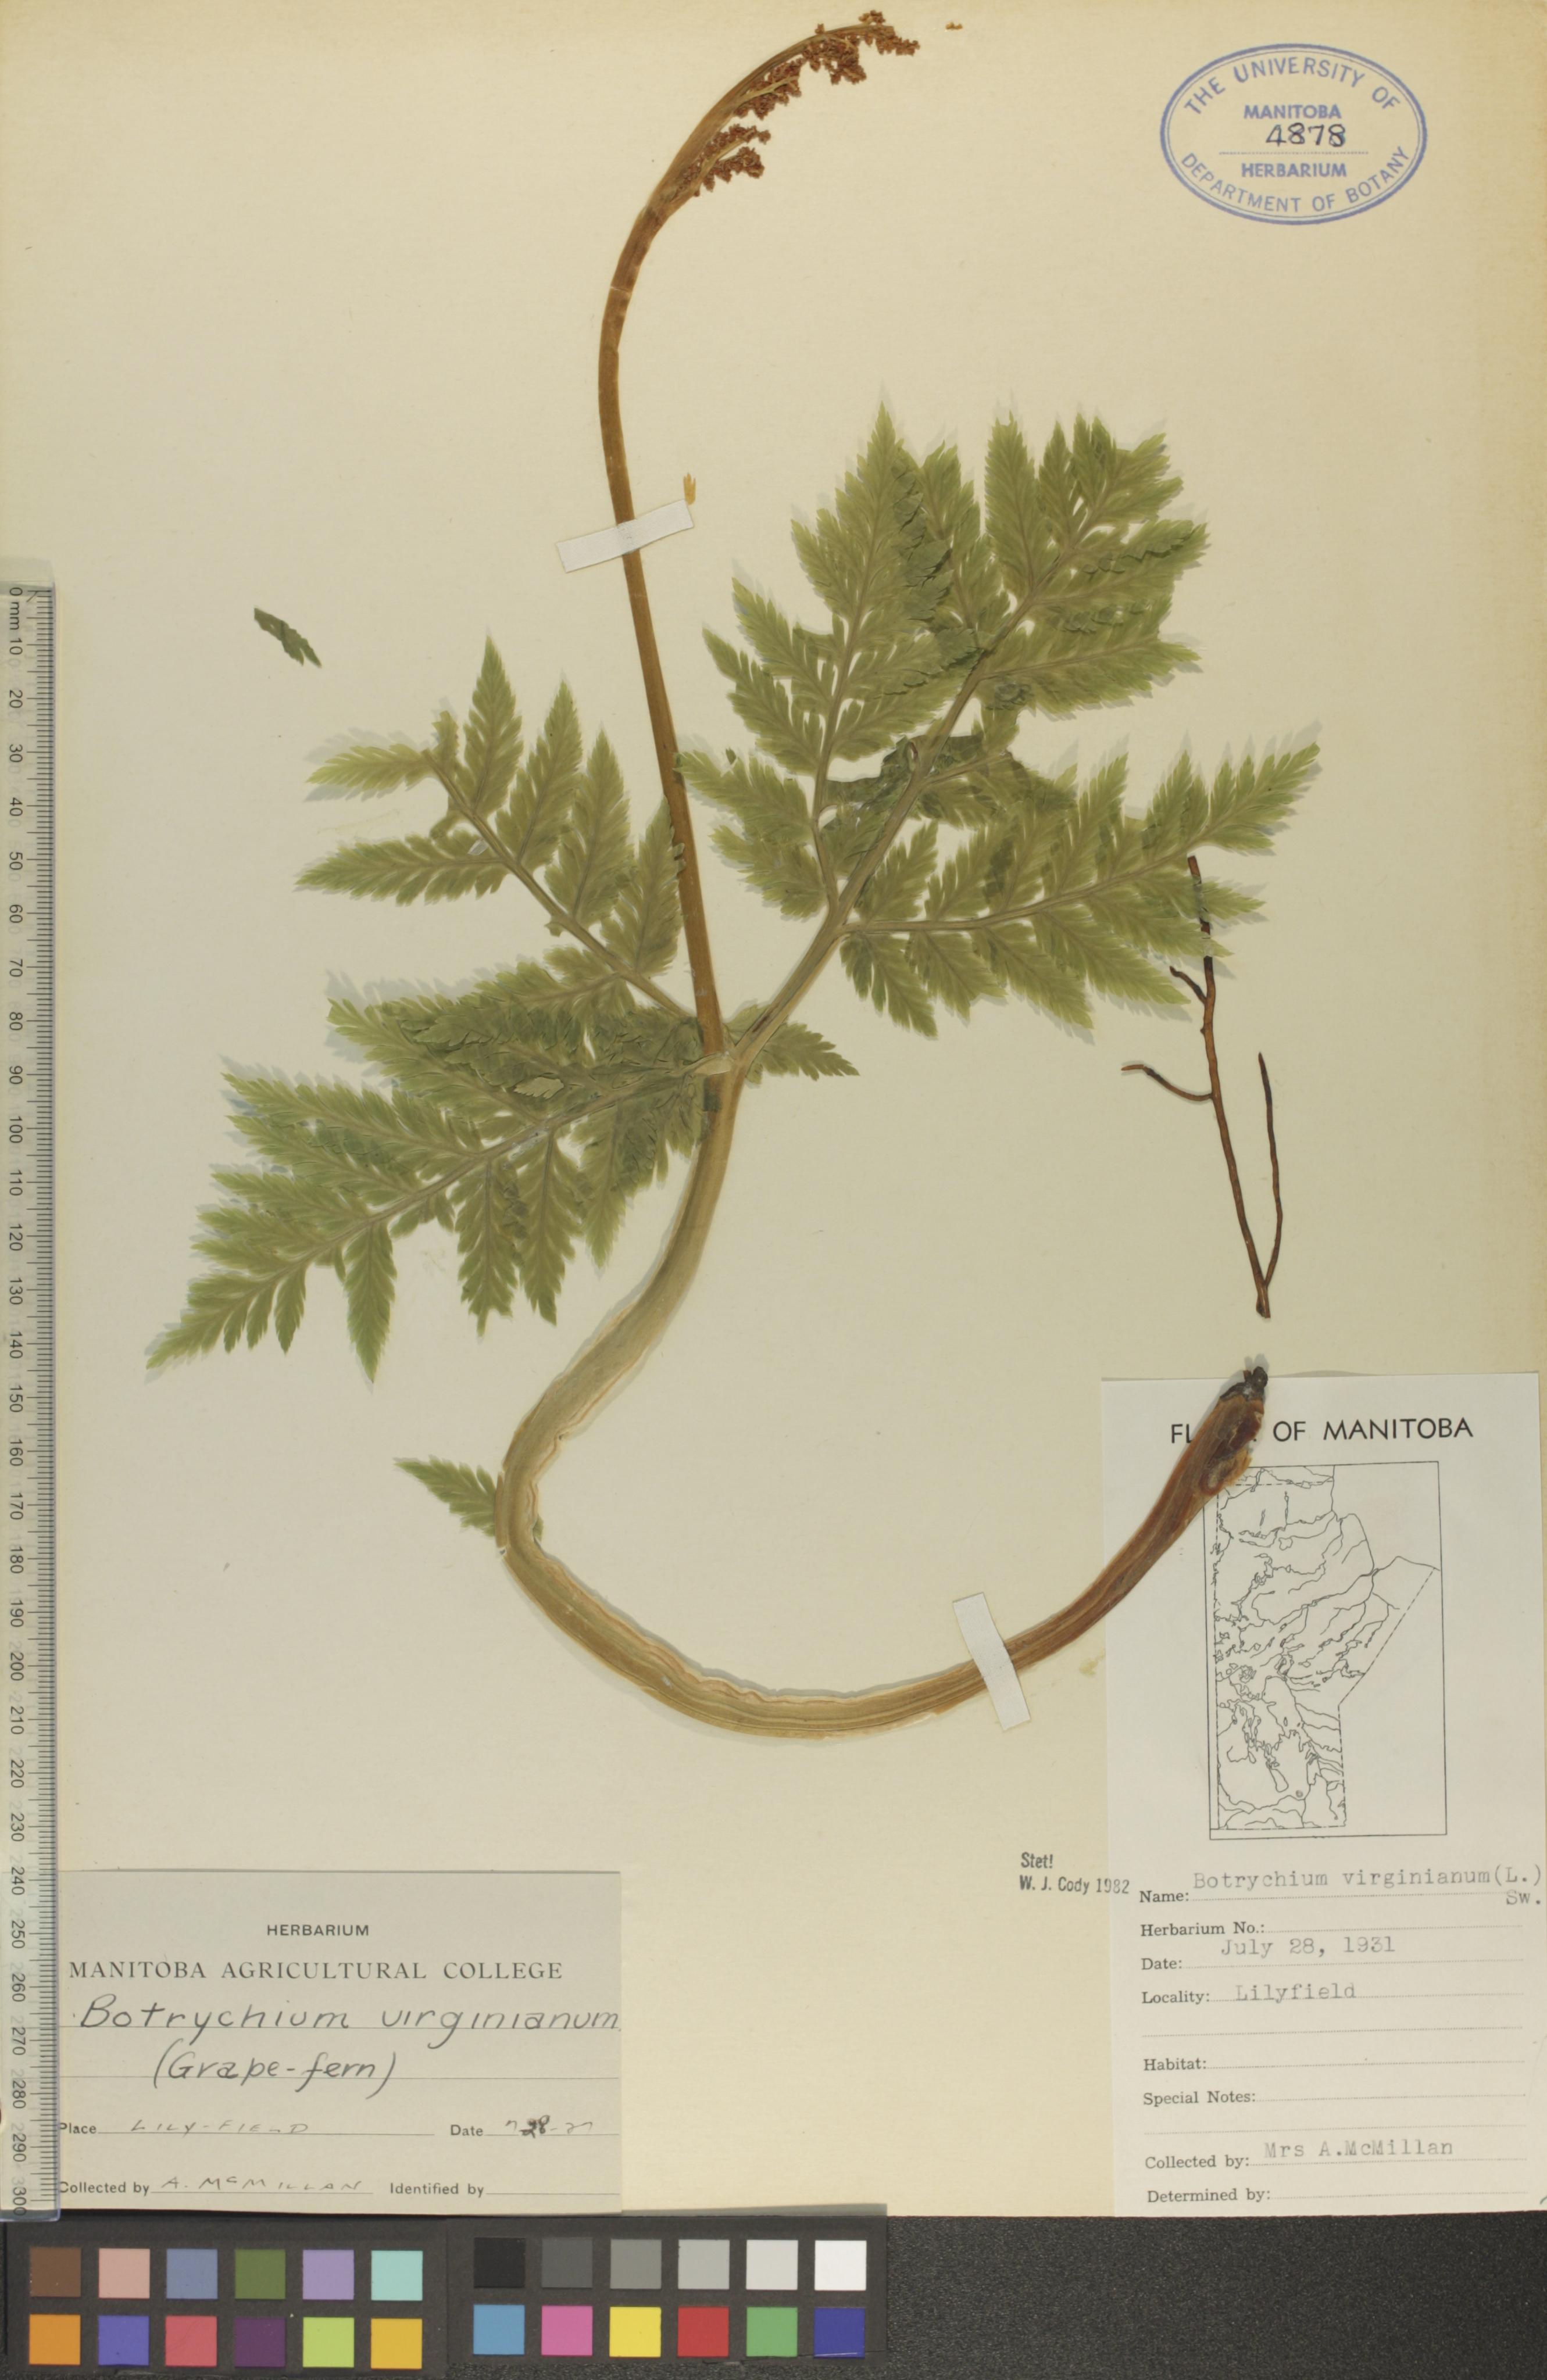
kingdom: Plantae
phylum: Tracheophyta
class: Polypodiopsida
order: Ophioglossales
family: Ophioglossaceae
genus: Botrypus
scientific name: Botrypus virginianus
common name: Common grapefern
